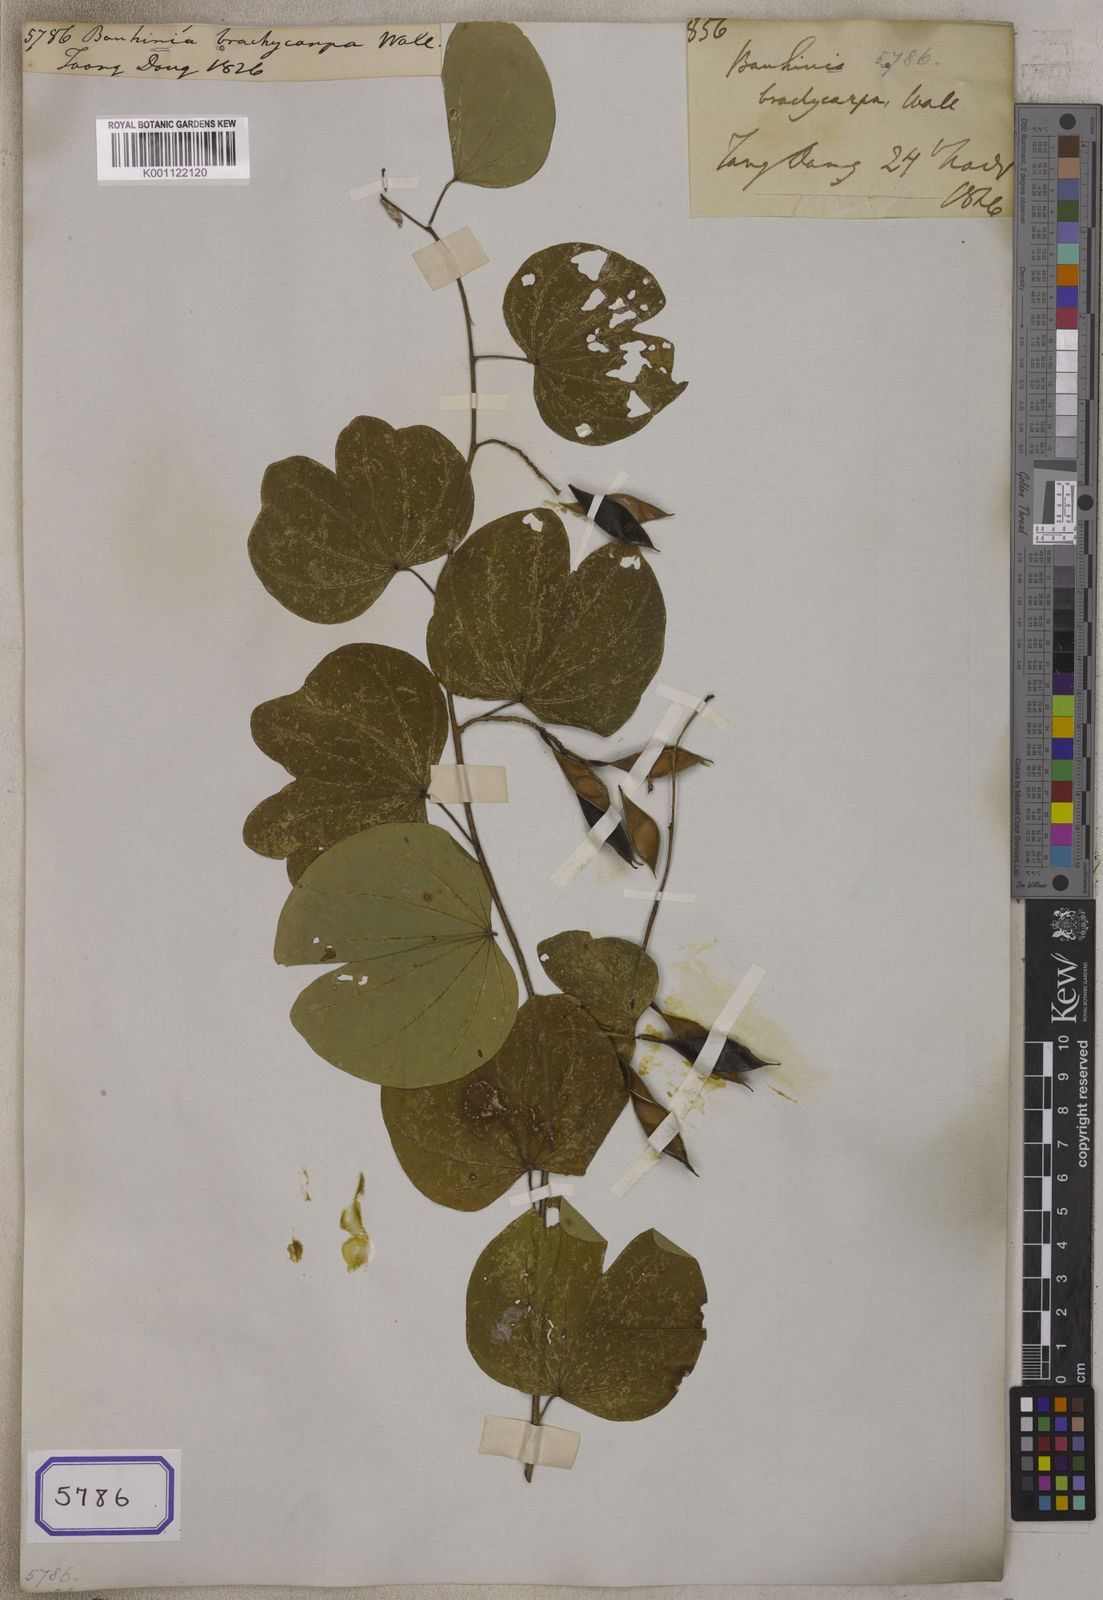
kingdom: Plantae
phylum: Tracheophyta
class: Magnoliopsida
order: Fabales
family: Fabaceae
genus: Bauhinia
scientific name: Bauhinia
